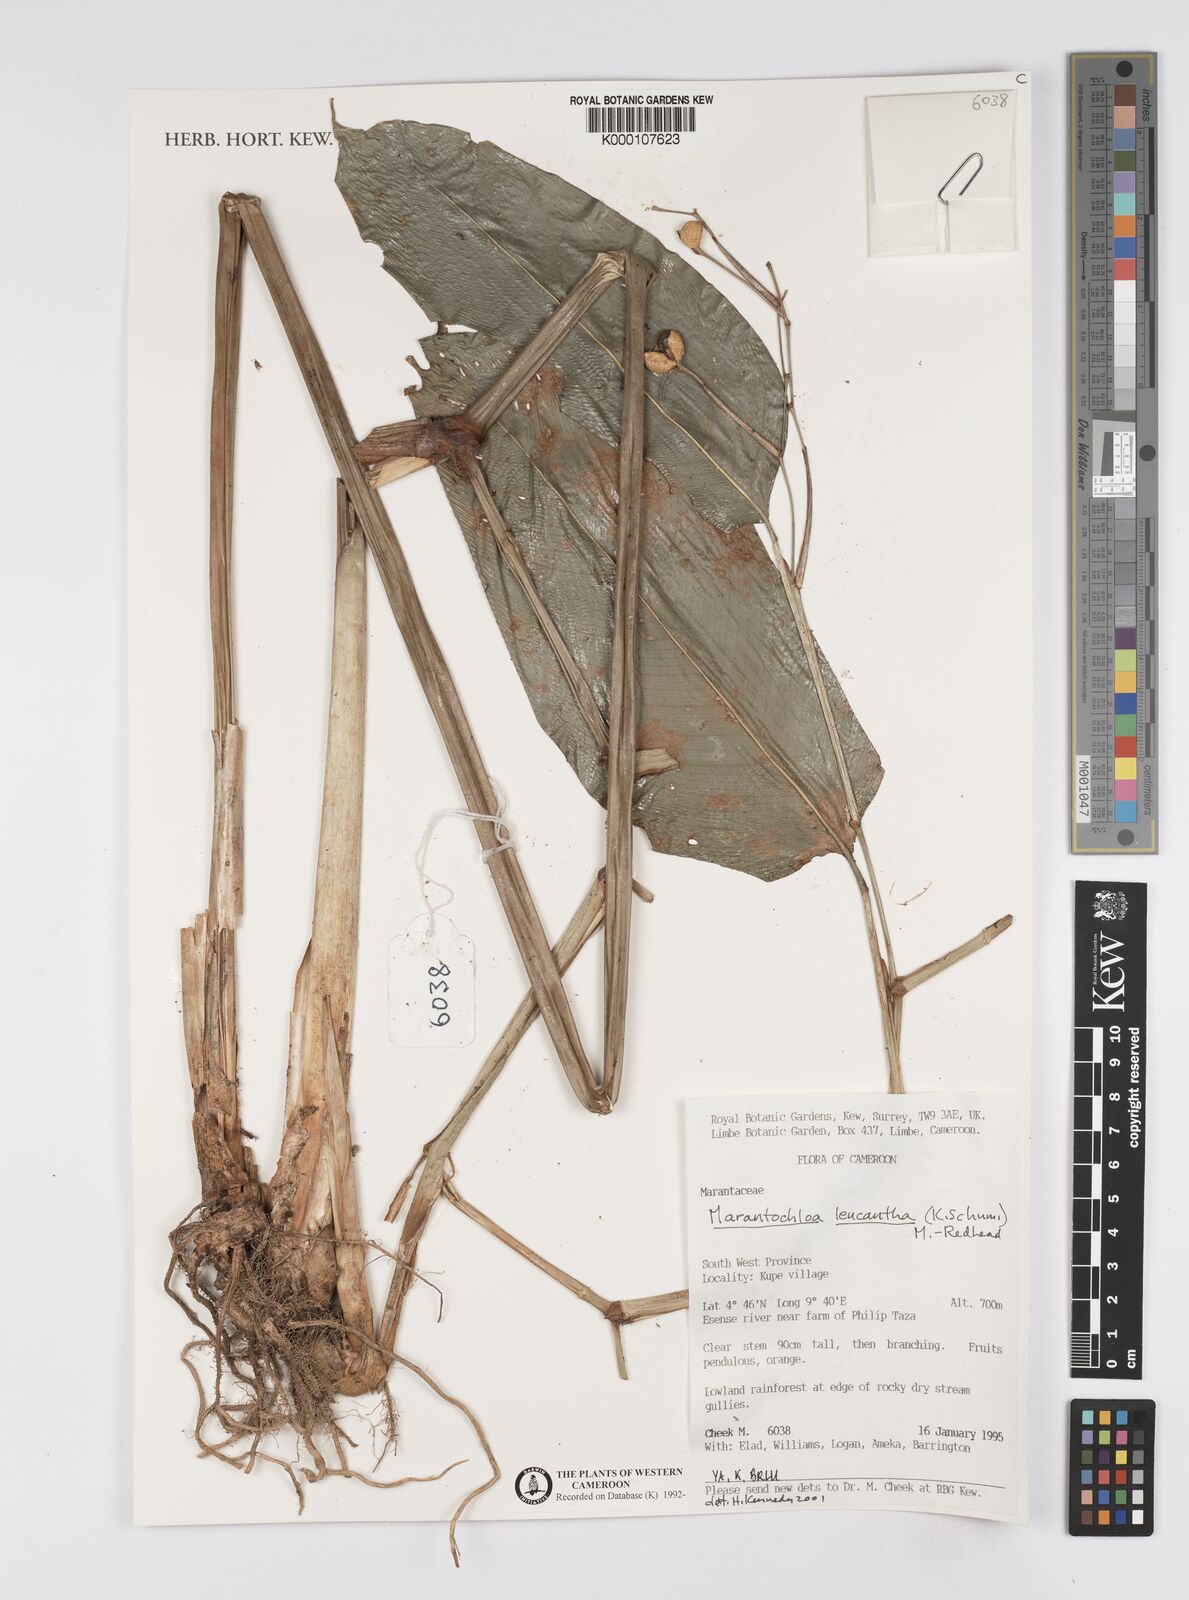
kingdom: Plantae
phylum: Tracheophyta
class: Liliopsida
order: Zingiberales
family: Marantaceae
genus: Marantochloa
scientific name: Marantochloa leucantha
